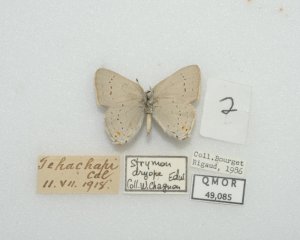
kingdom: Animalia
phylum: Arthropoda
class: Insecta
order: Lepidoptera
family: Lycaenidae
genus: Strymon
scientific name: Strymon sylvinus
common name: Sylvan Hairstreak
